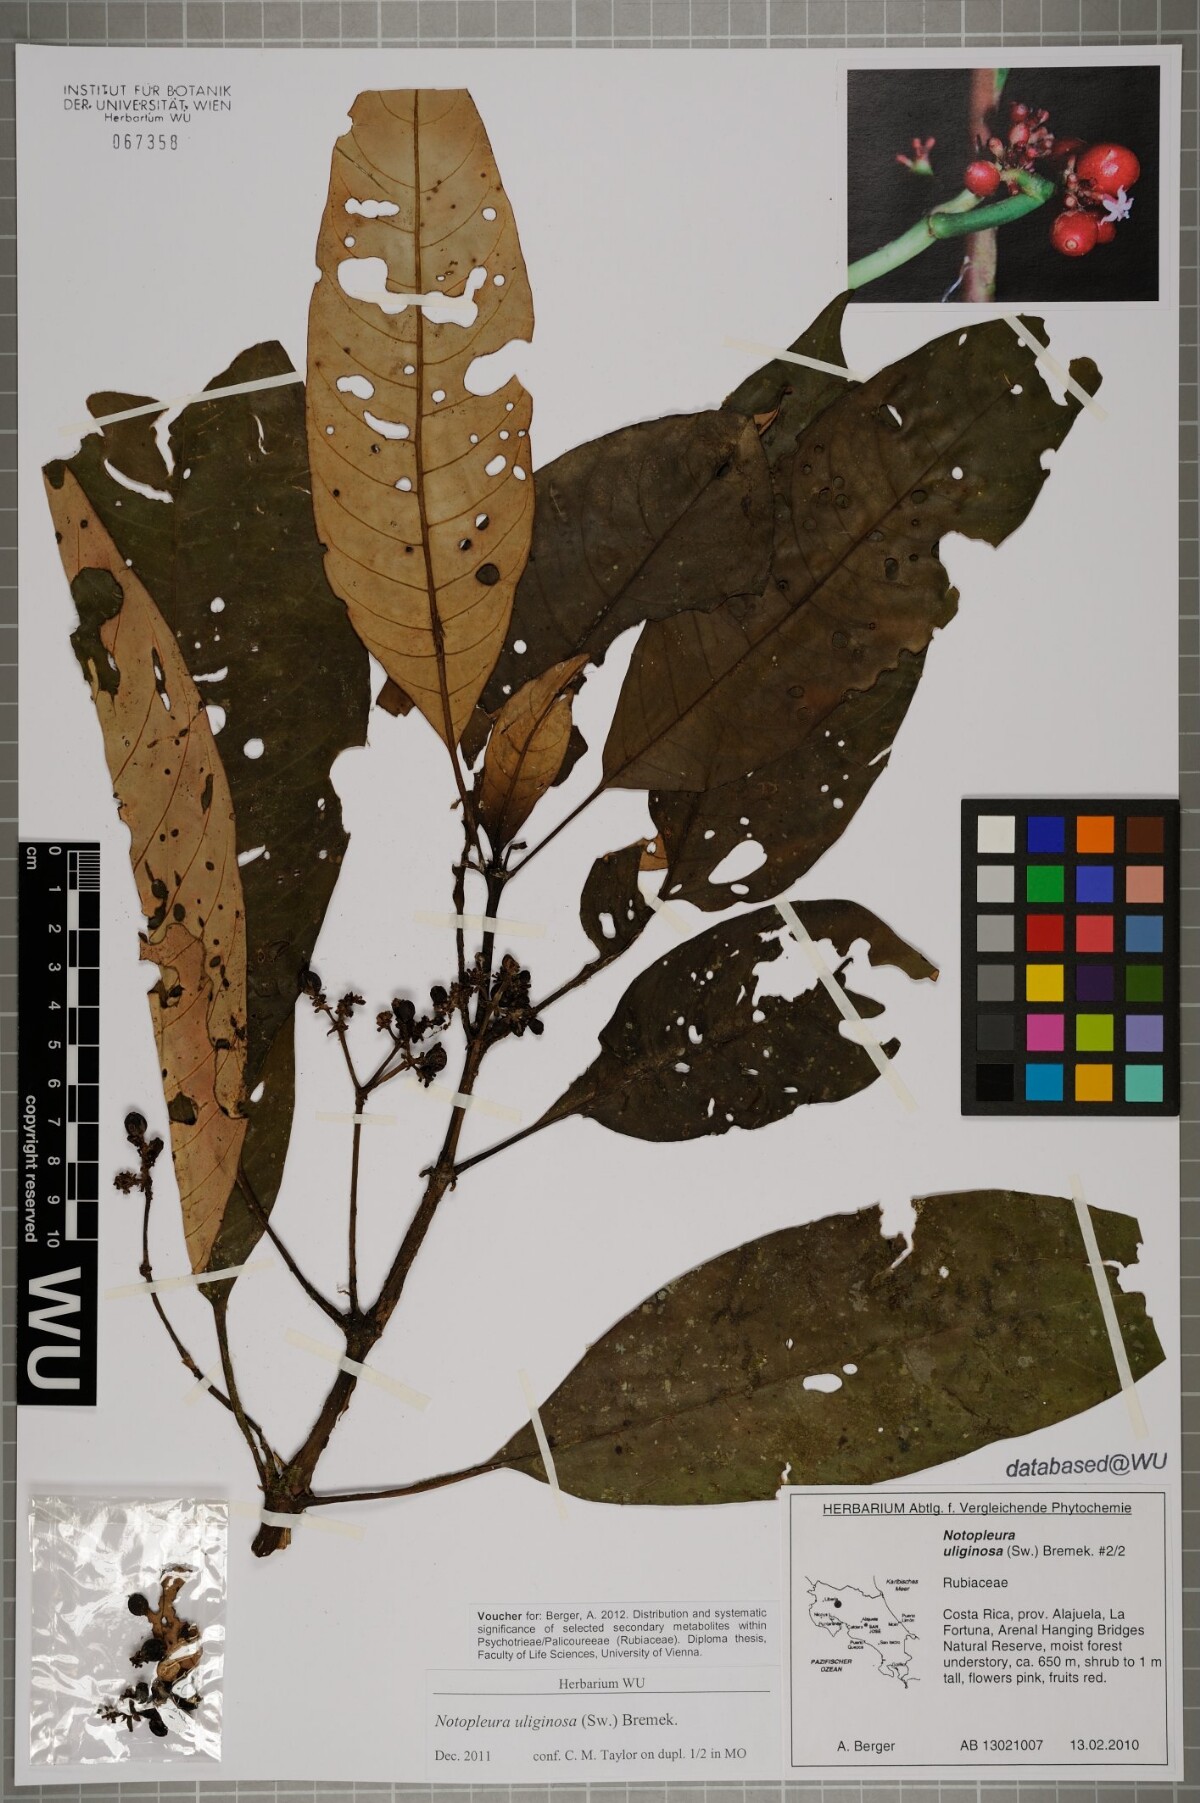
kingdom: Plantae
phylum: Tracheophyta
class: Magnoliopsida
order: Gentianales
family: Rubiaceae
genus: Notopleura
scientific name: Notopleura uliginosa
